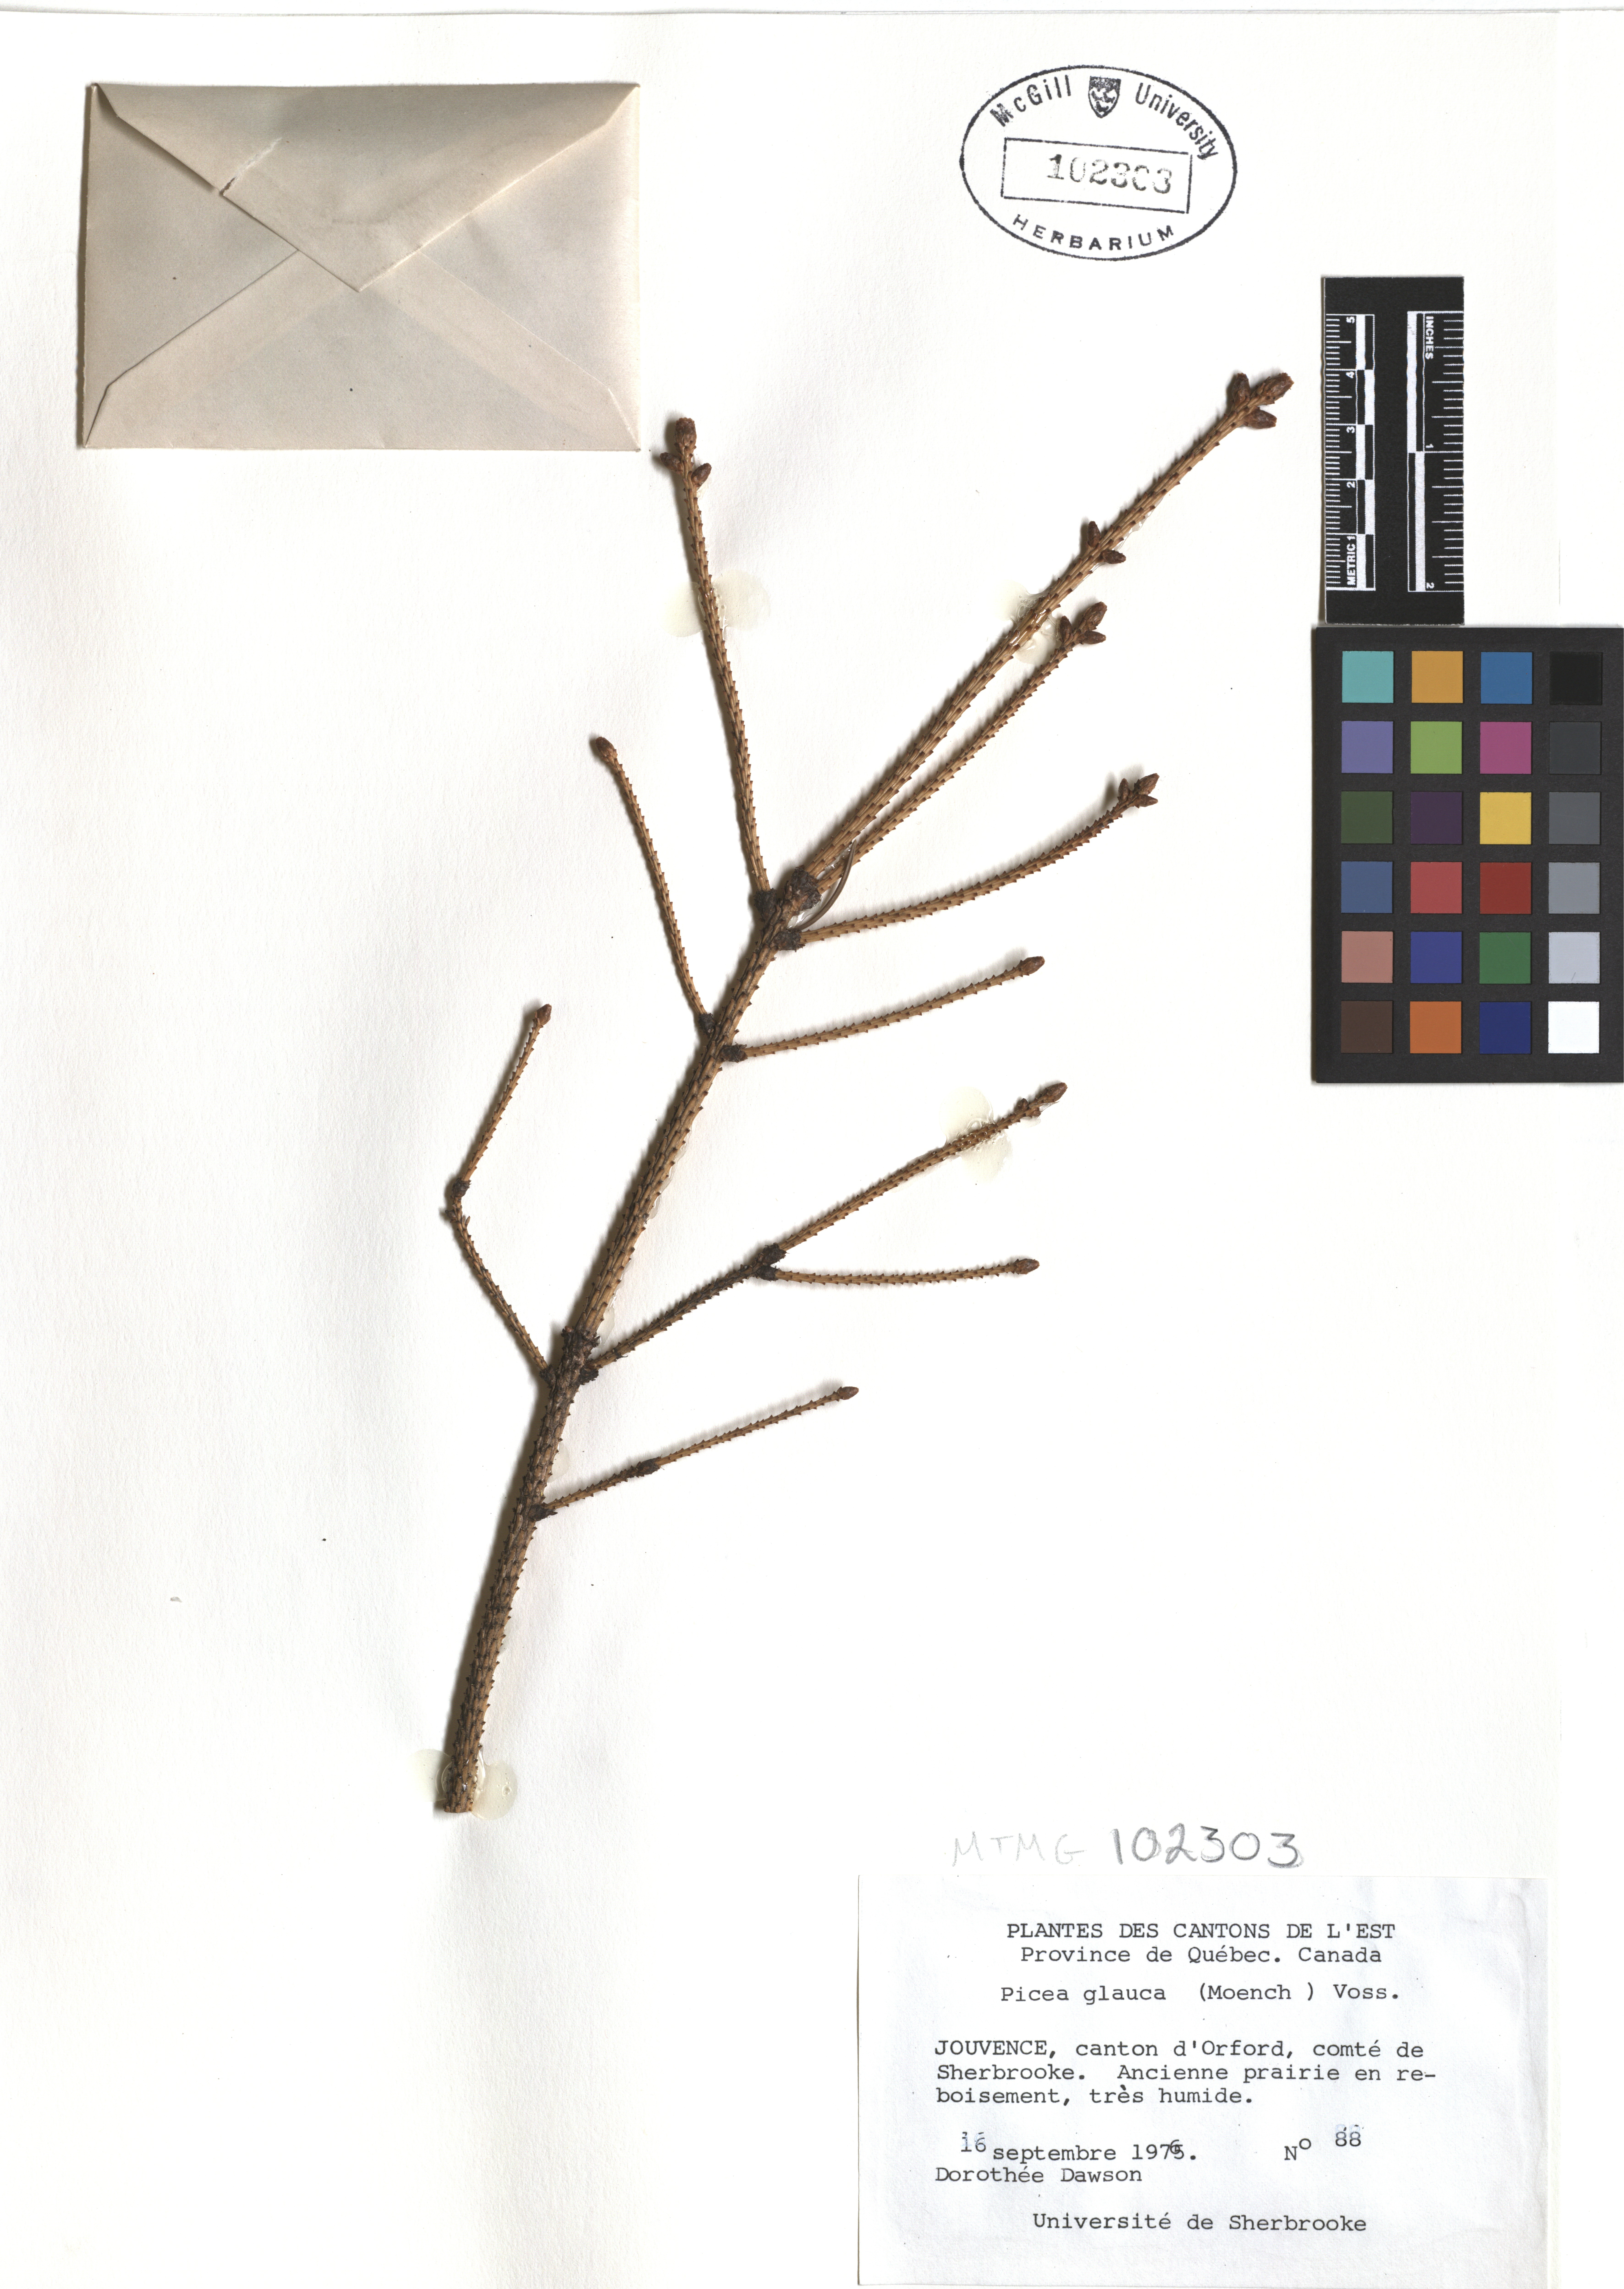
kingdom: Plantae
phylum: Tracheophyta
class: Pinopsida
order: Pinales
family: Cupressaceae
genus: Thuja
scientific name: Thuja occidentalis
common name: Northern white-cedar
